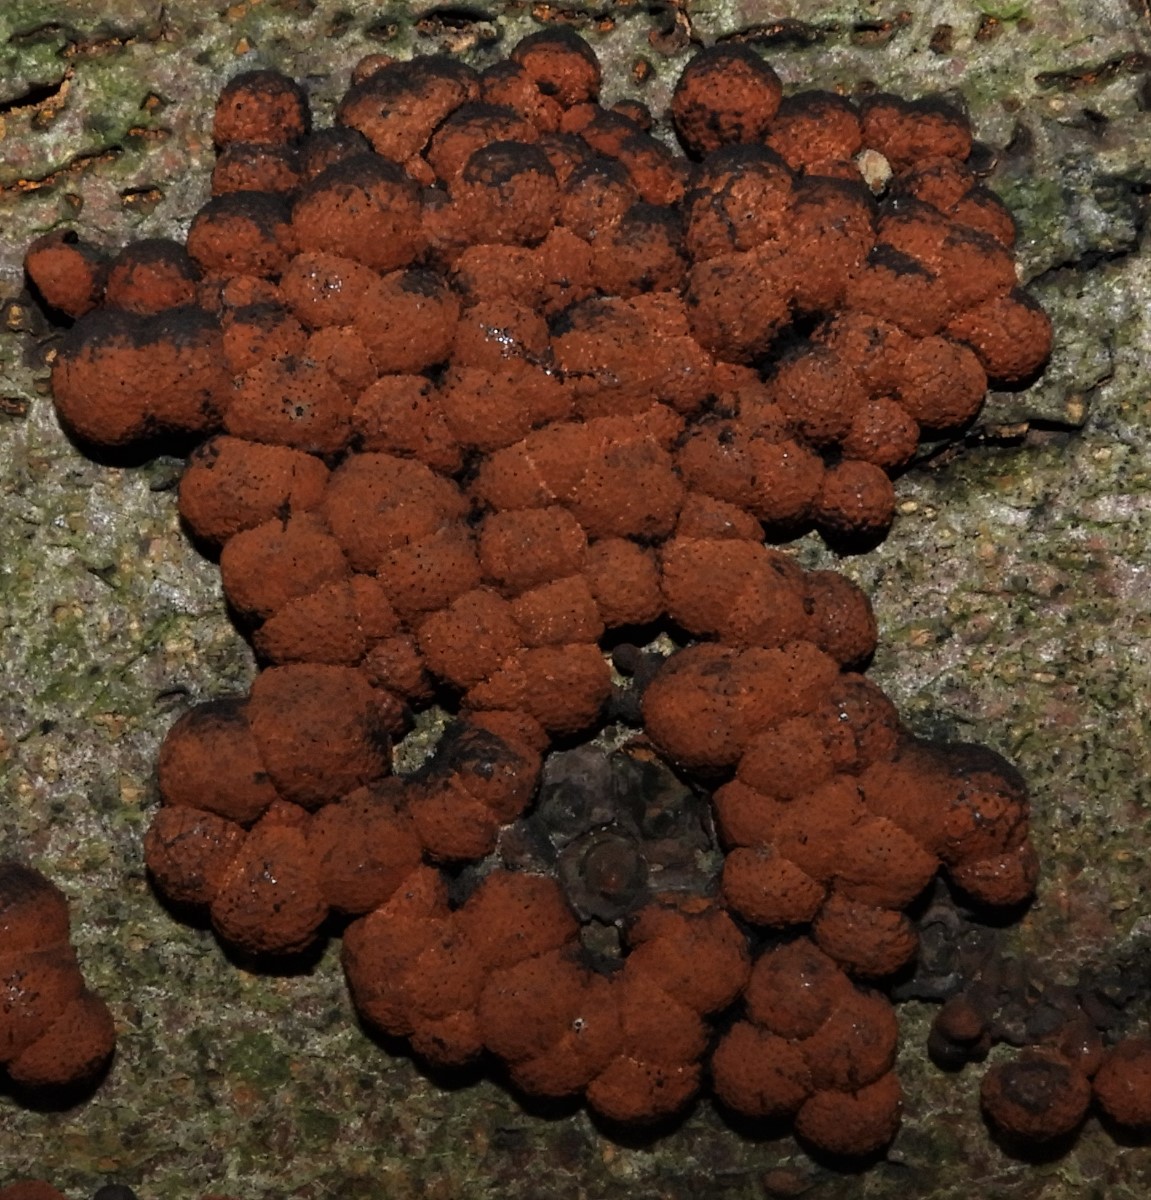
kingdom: Fungi
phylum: Ascomycota
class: Sordariomycetes
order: Xylariales
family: Hypoxylaceae
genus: Hypoxylon
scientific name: Hypoxylon fragiforme
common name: kuljordbær
